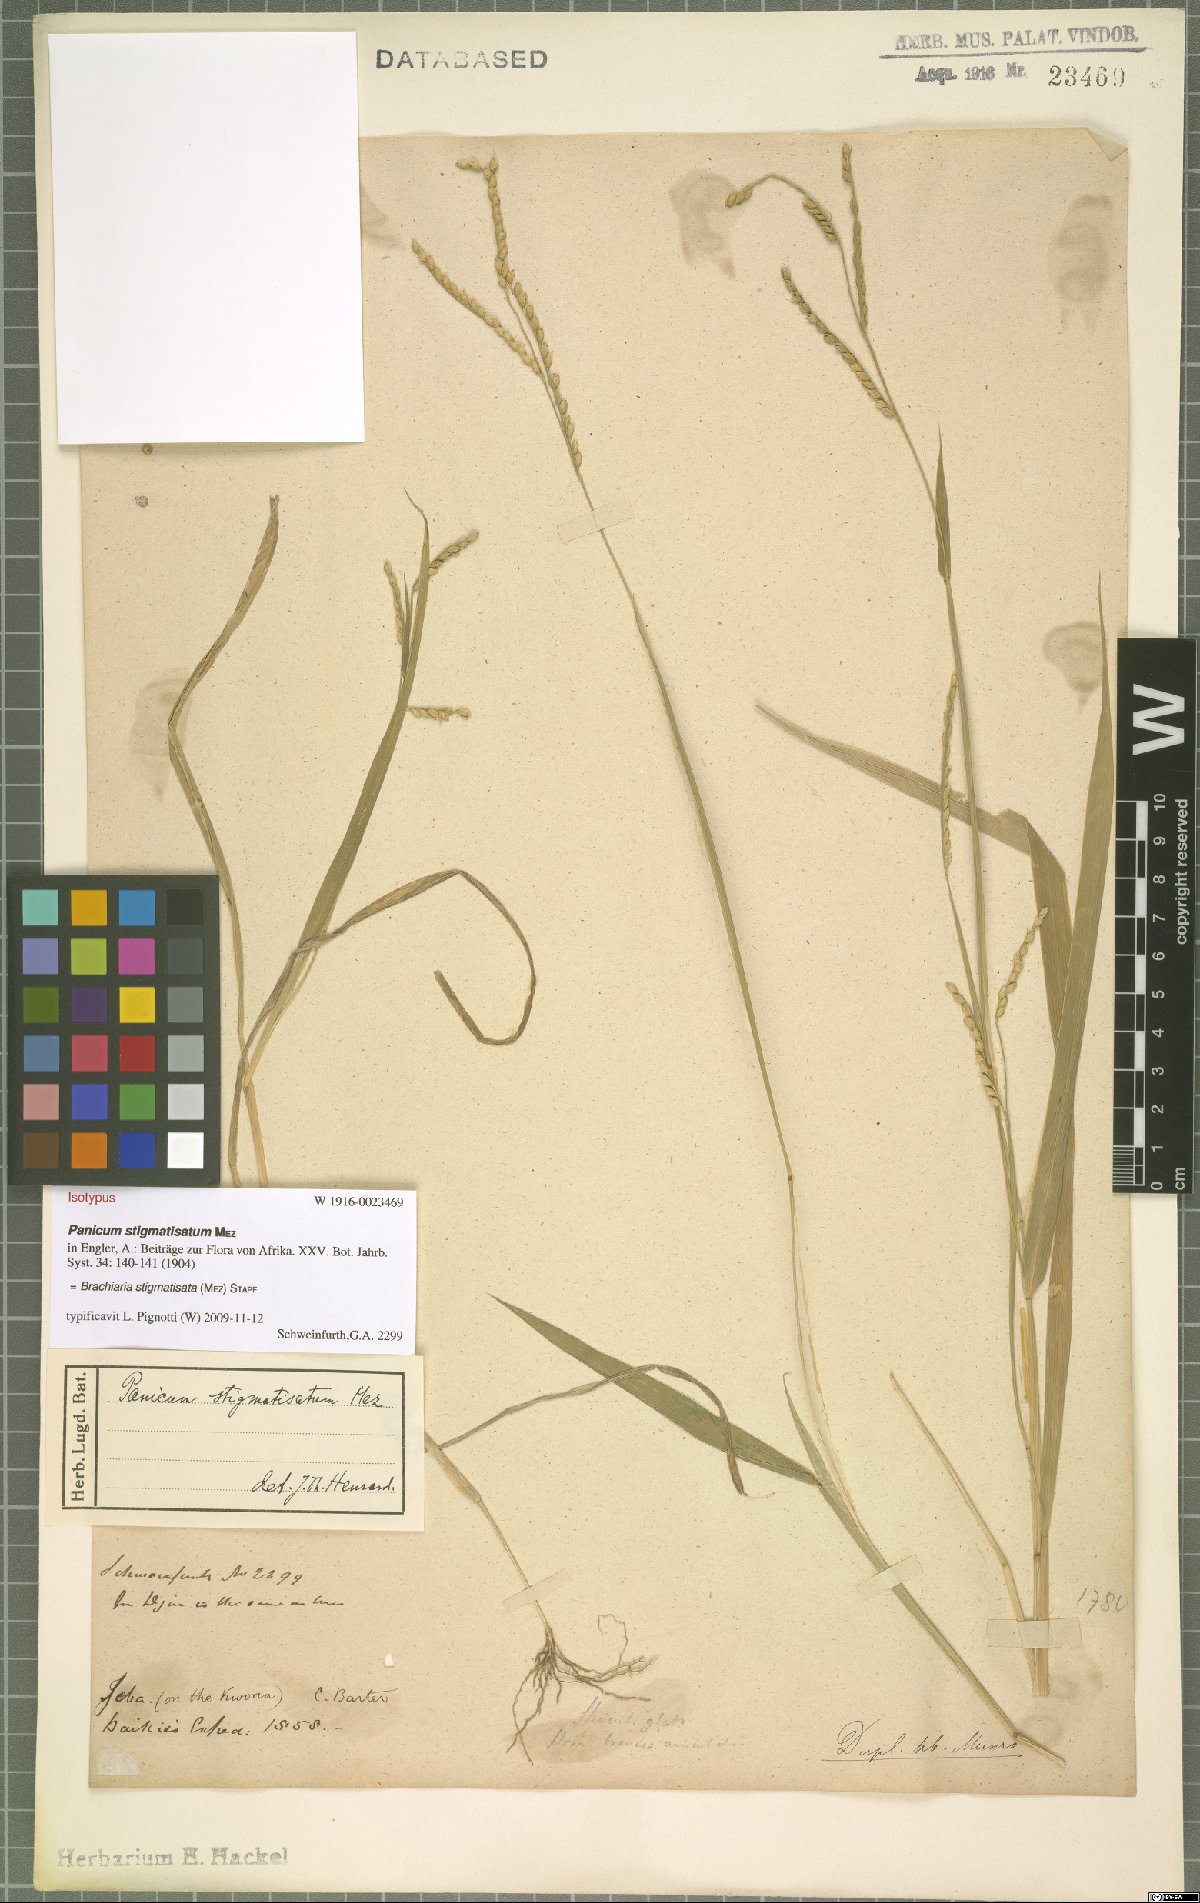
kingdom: Plantae
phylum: Tracheophyta
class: Liliopsida
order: Poales
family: Poaceae
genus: Urochloa
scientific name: Urochloa stigmatisata
